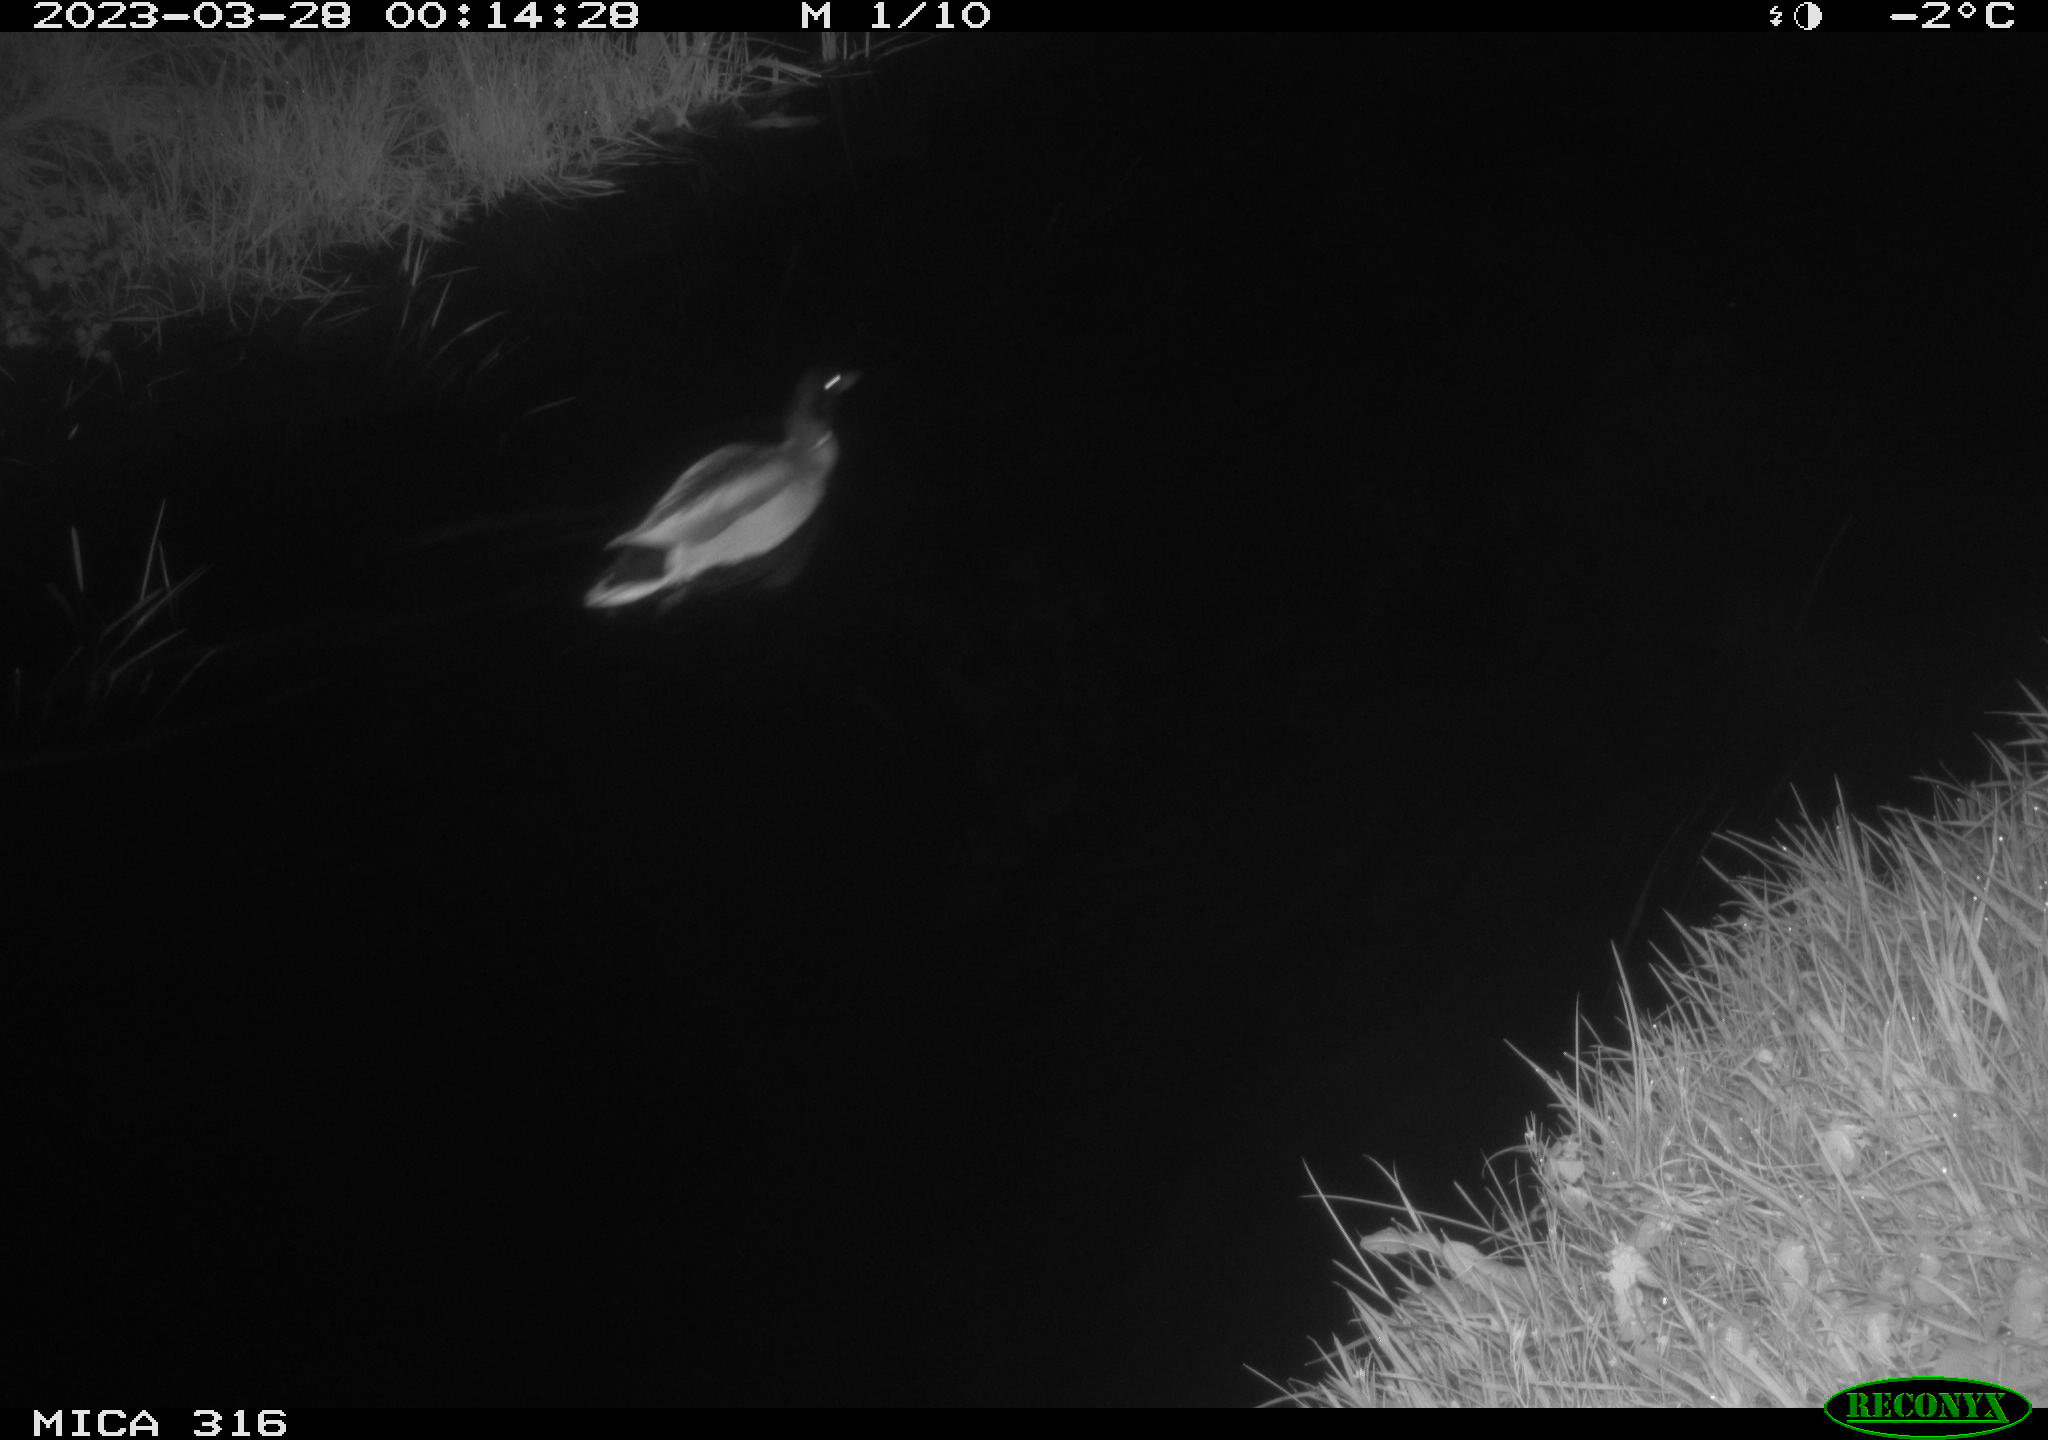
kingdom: Animalia
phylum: Chordata
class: Aves
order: Anseriformes
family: Anatidae
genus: Anas
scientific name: Anas
